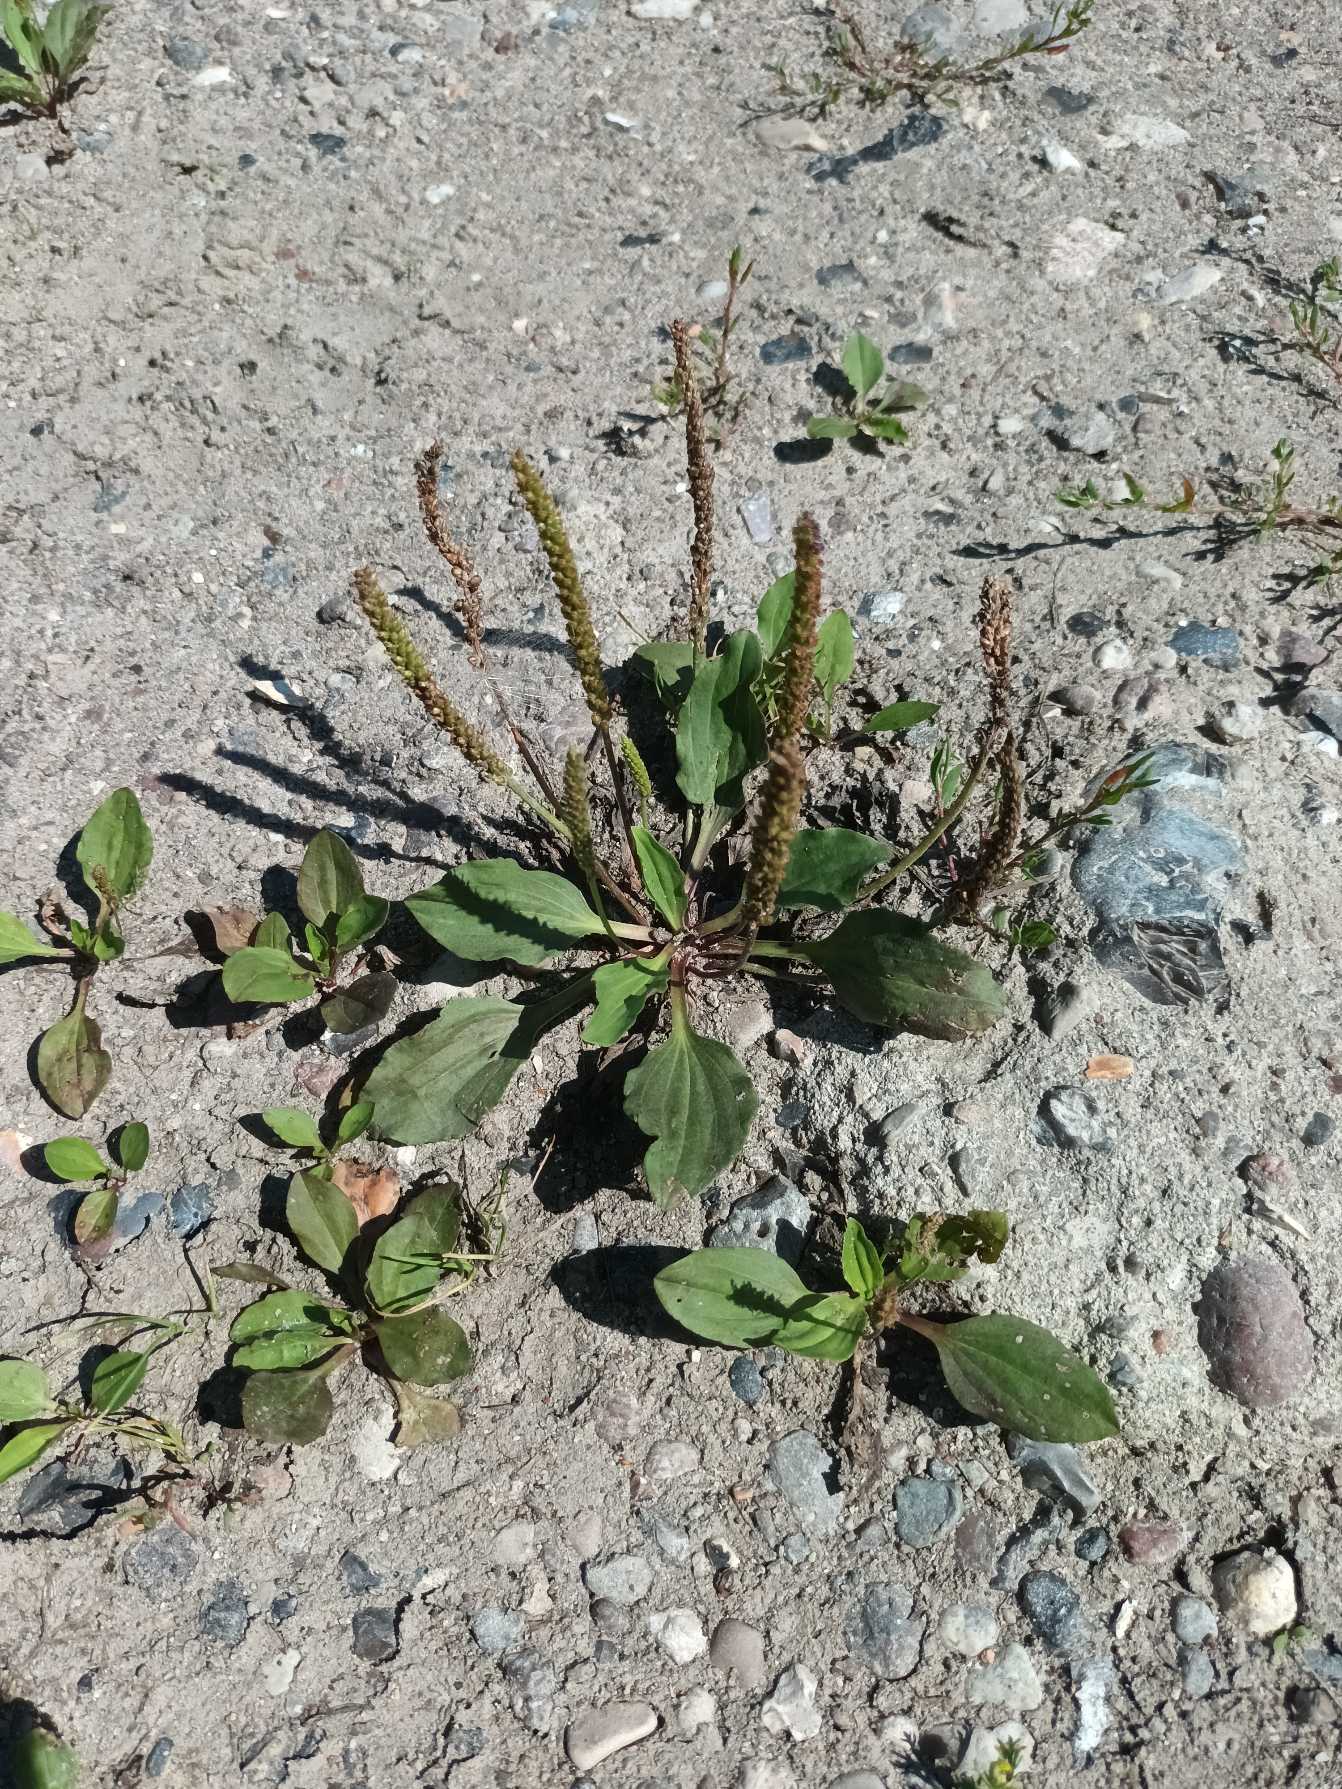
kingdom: Plantae
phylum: Tracheophyta
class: Magnoliopsida
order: Lamiales
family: Plantaginaceae
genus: Plantago
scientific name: Plantago major
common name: Glat vejbred
